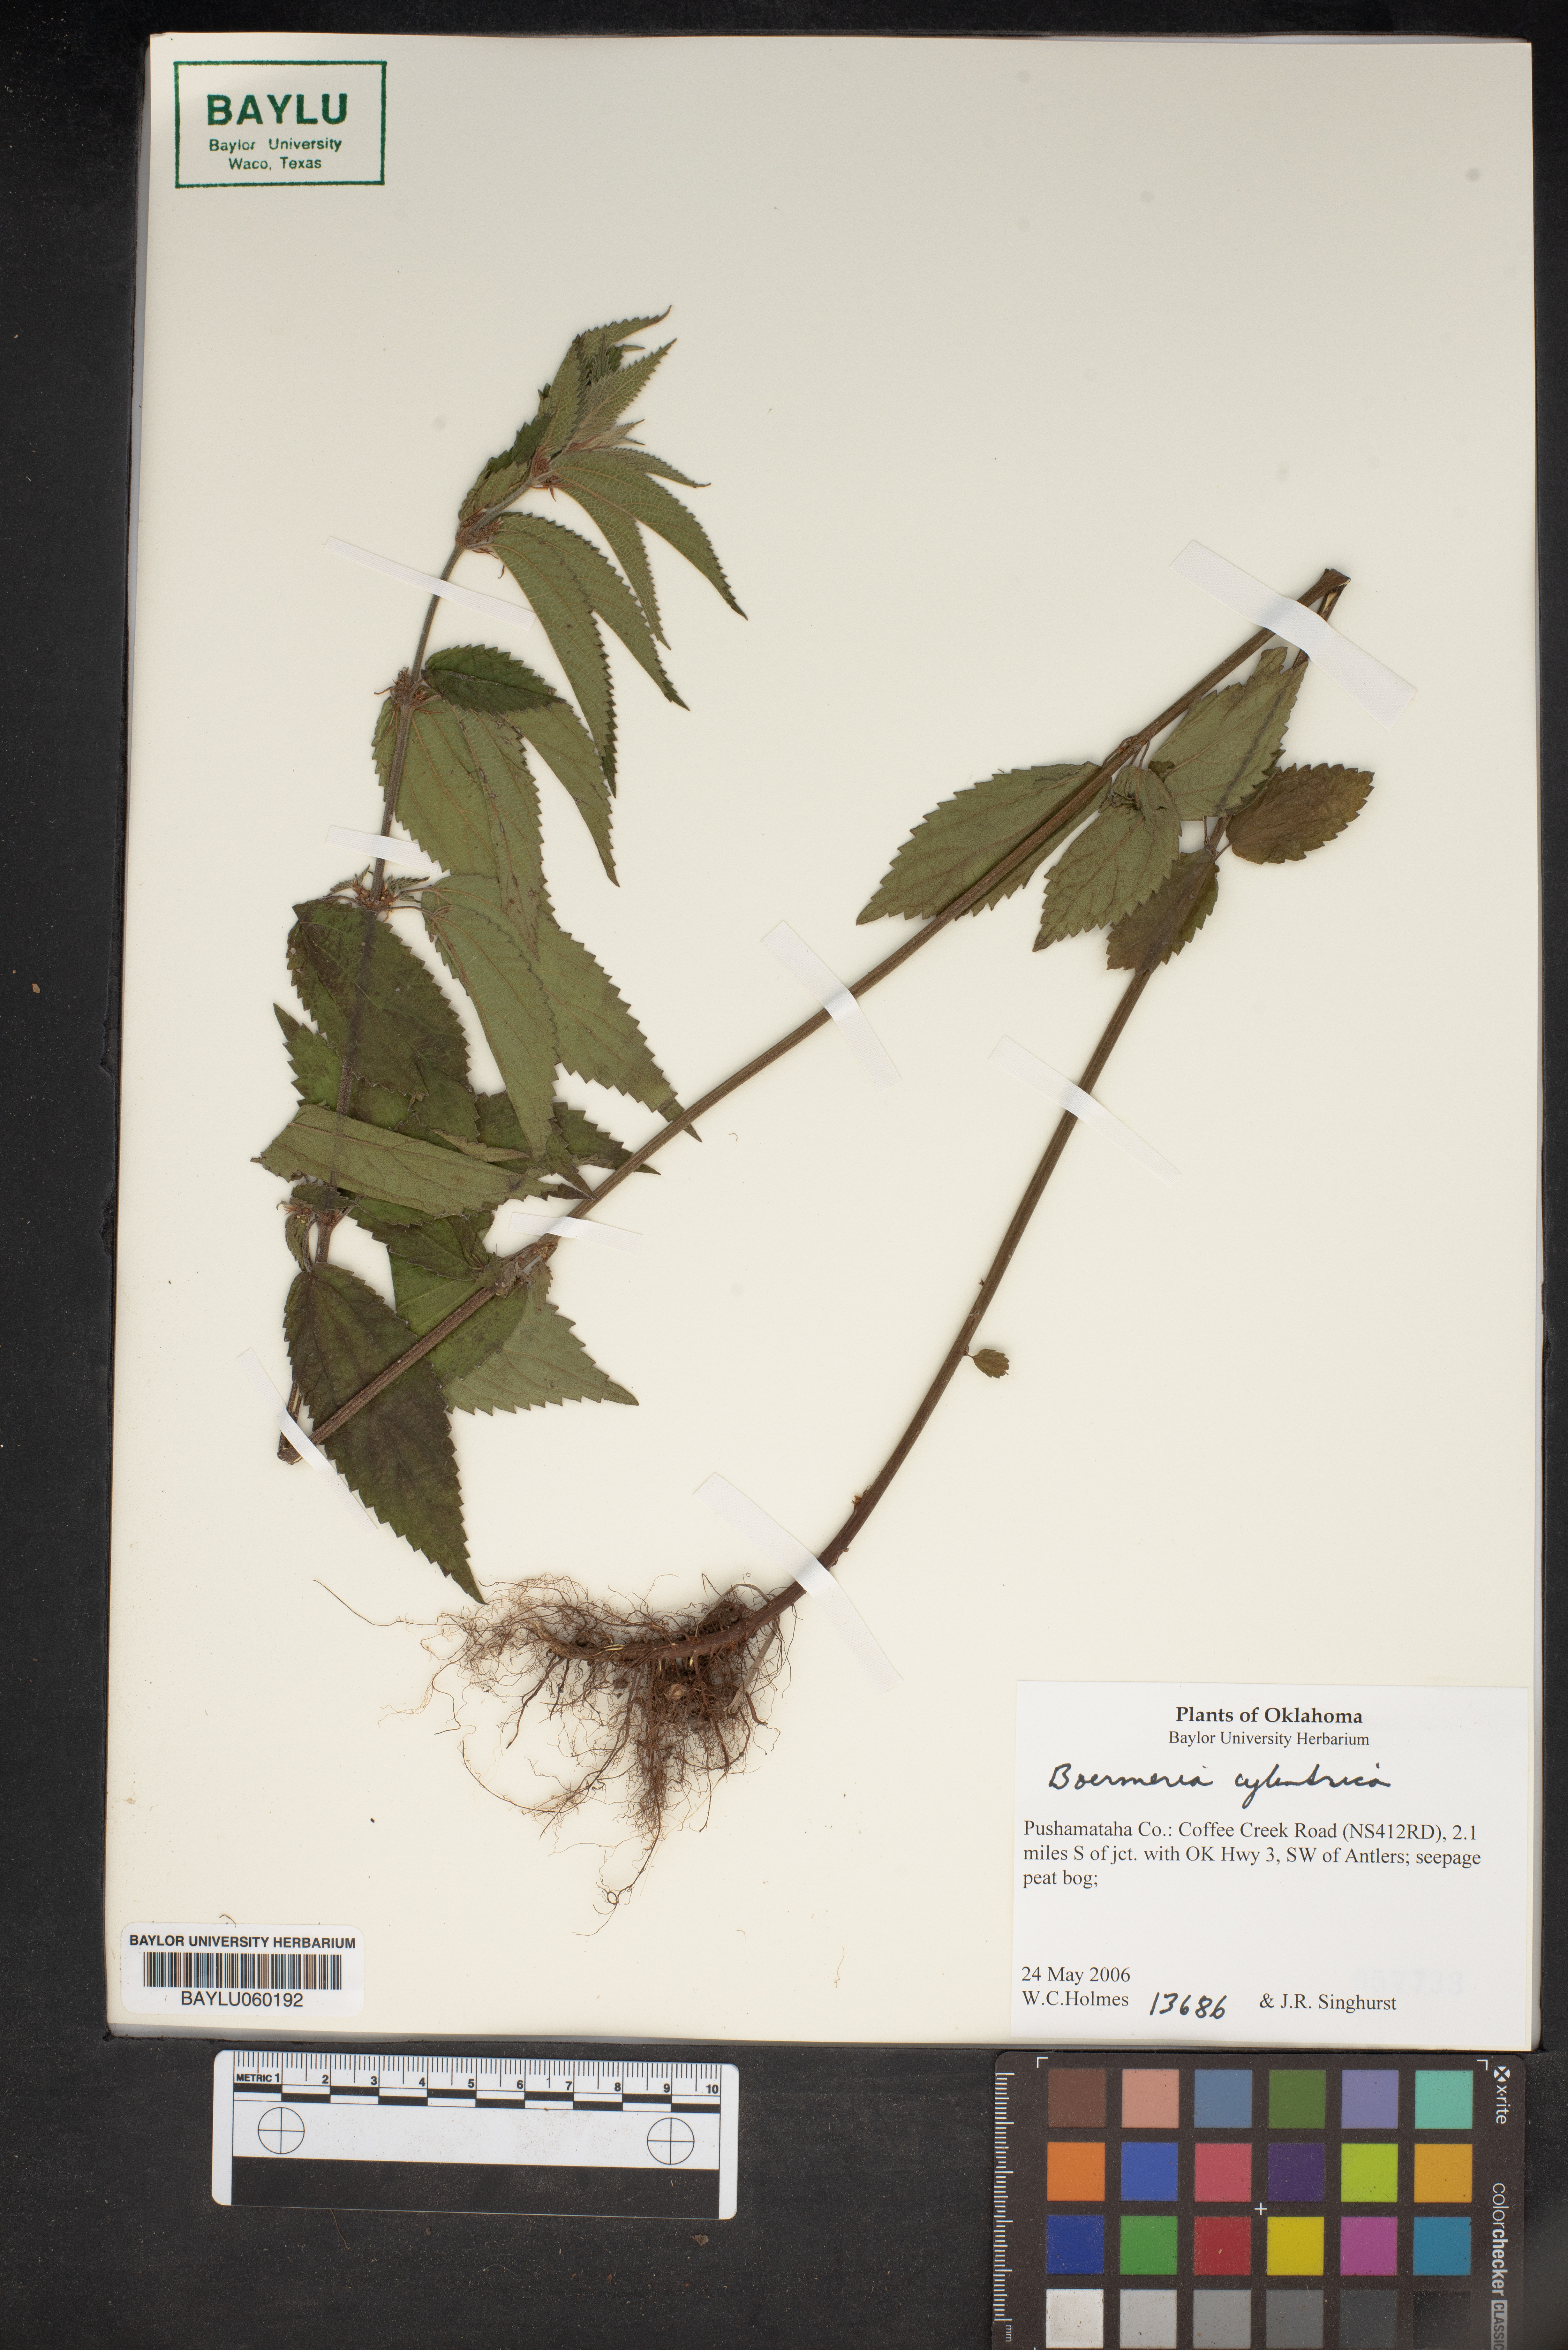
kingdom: Plantae
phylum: Tracheophyta
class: Magnoliopsida
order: Rosales
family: Urticaceae
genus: Boehmeria
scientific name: Boehmeria cylindrica
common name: Bog-hemp
